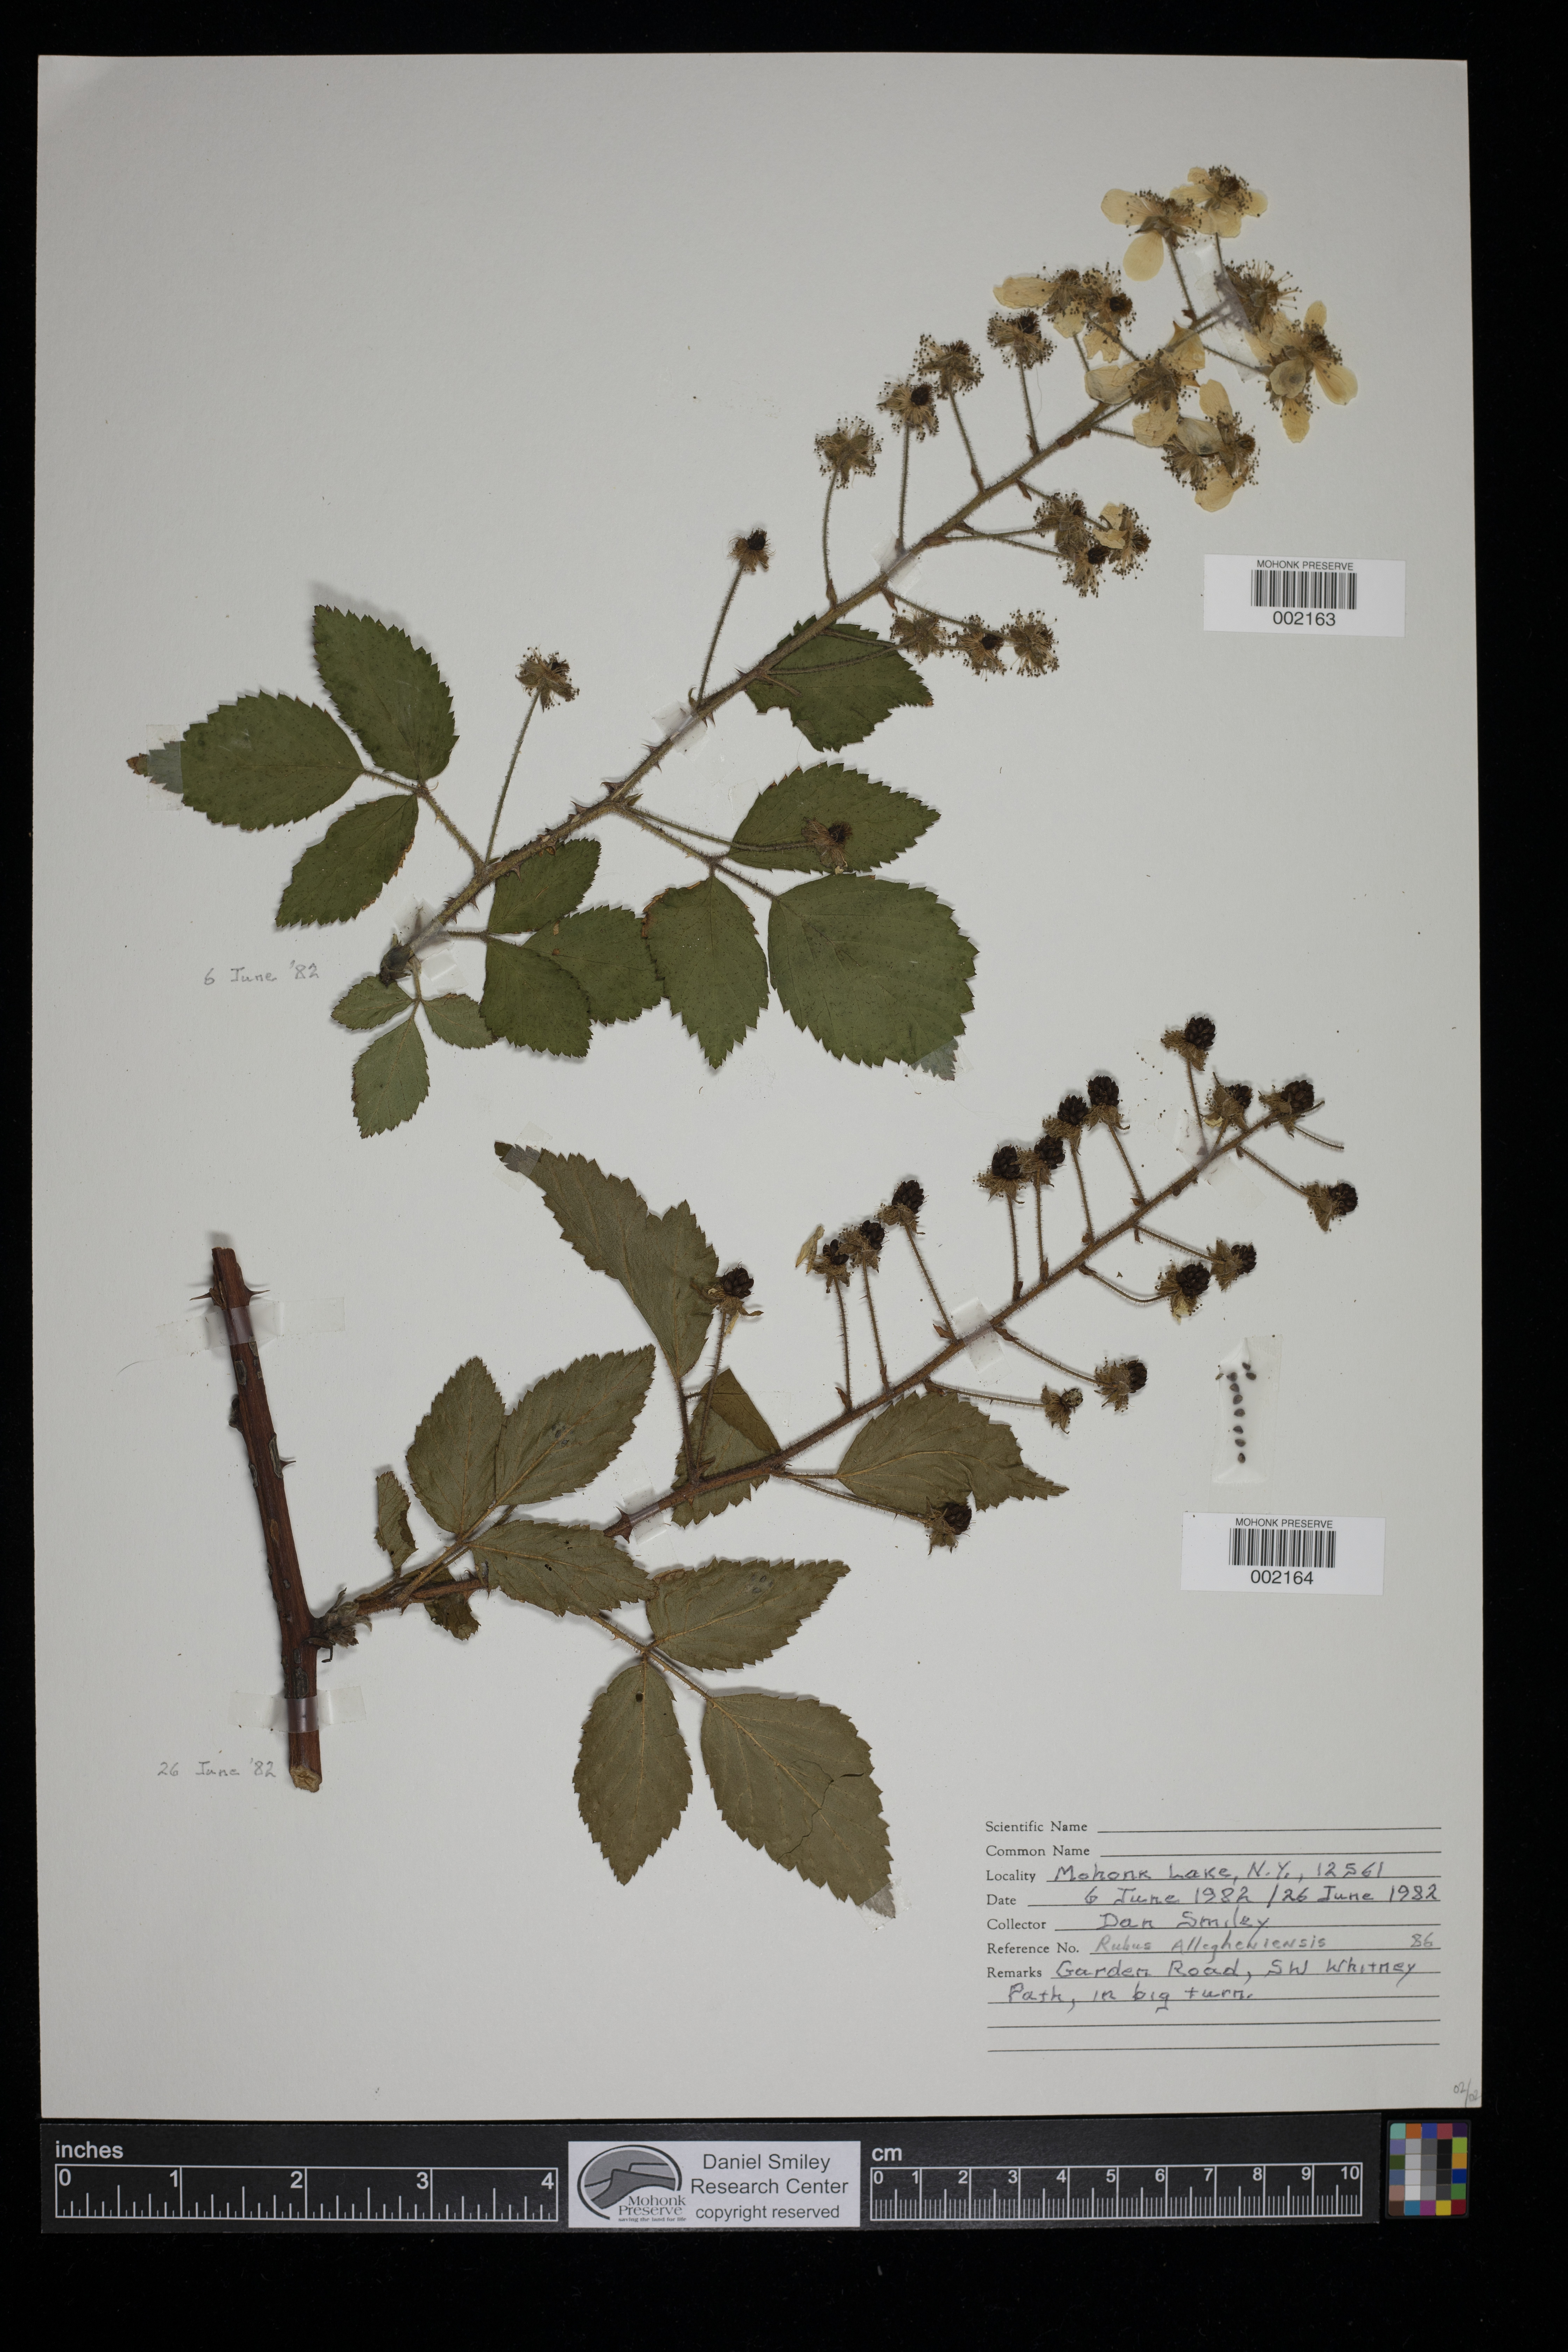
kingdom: Plantae
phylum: Tracheophyta
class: Magnoliopsida
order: Rosales
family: Rosaceae
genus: Rubus
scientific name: Rubus allegheniensis
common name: Allegheny blackberry
